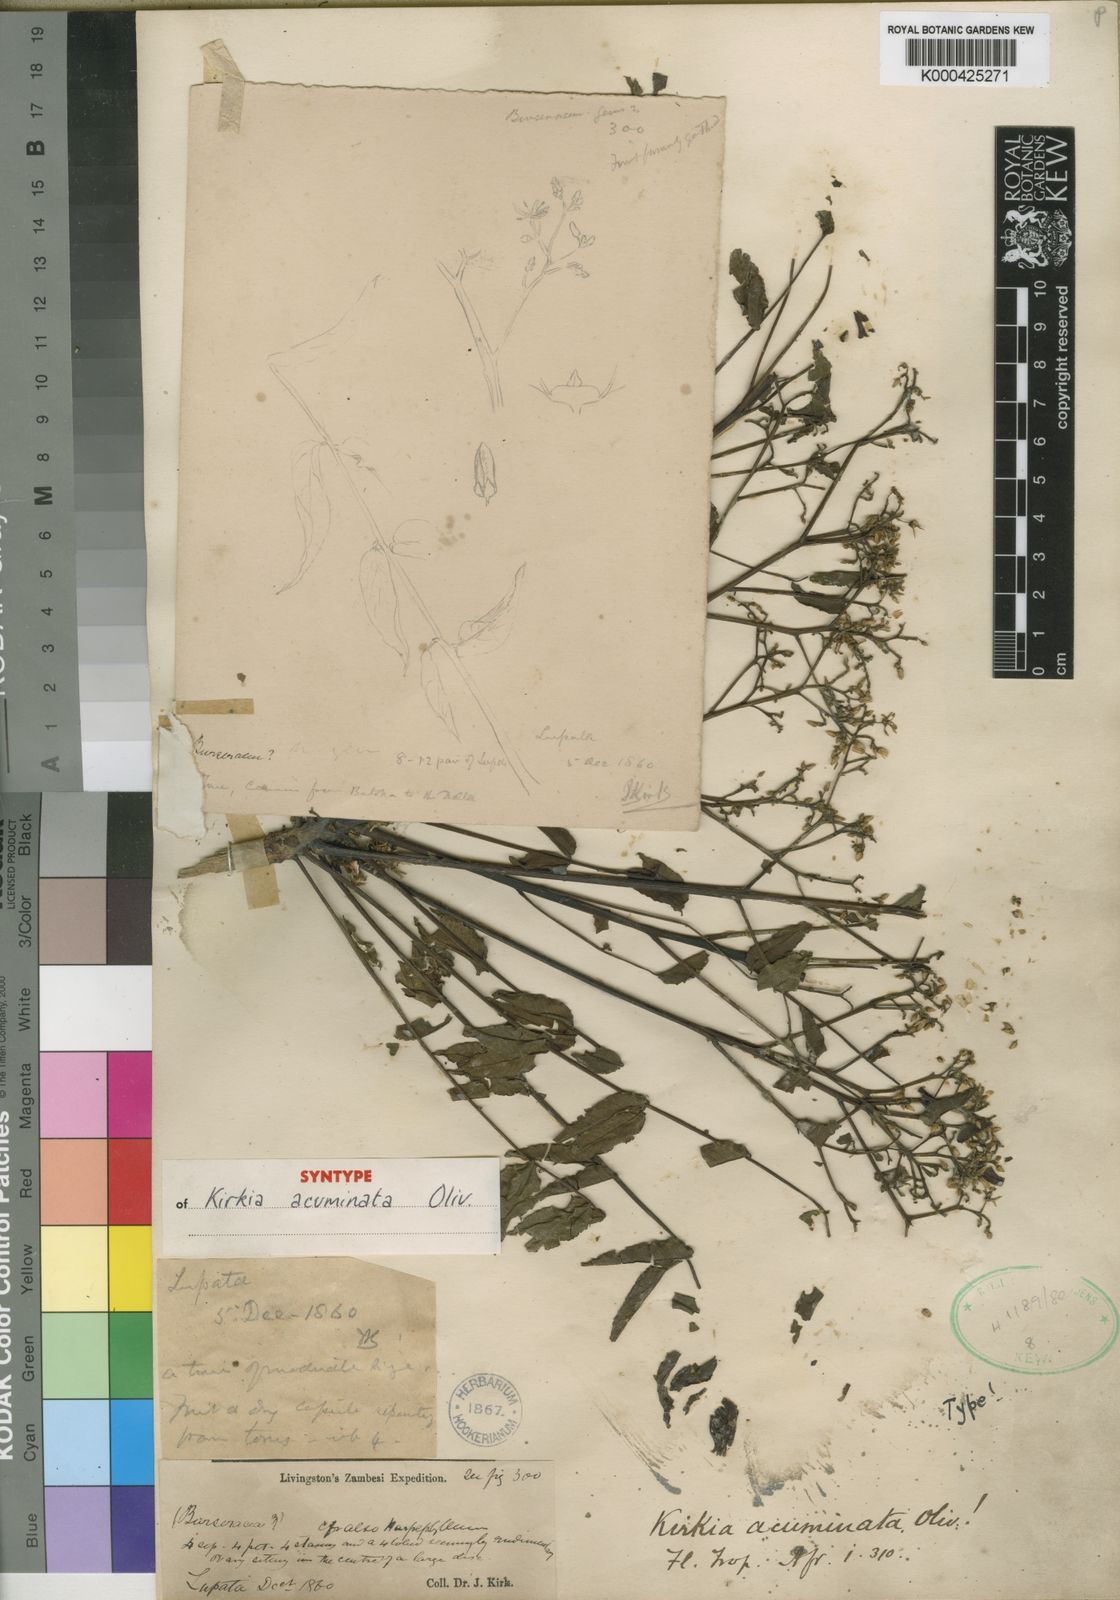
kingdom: Plantae
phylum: Tracheophyta
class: Magnoliopsida
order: Sapindales
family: Kirkiaceae
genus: Kirkia
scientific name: Kirkia acuminata
